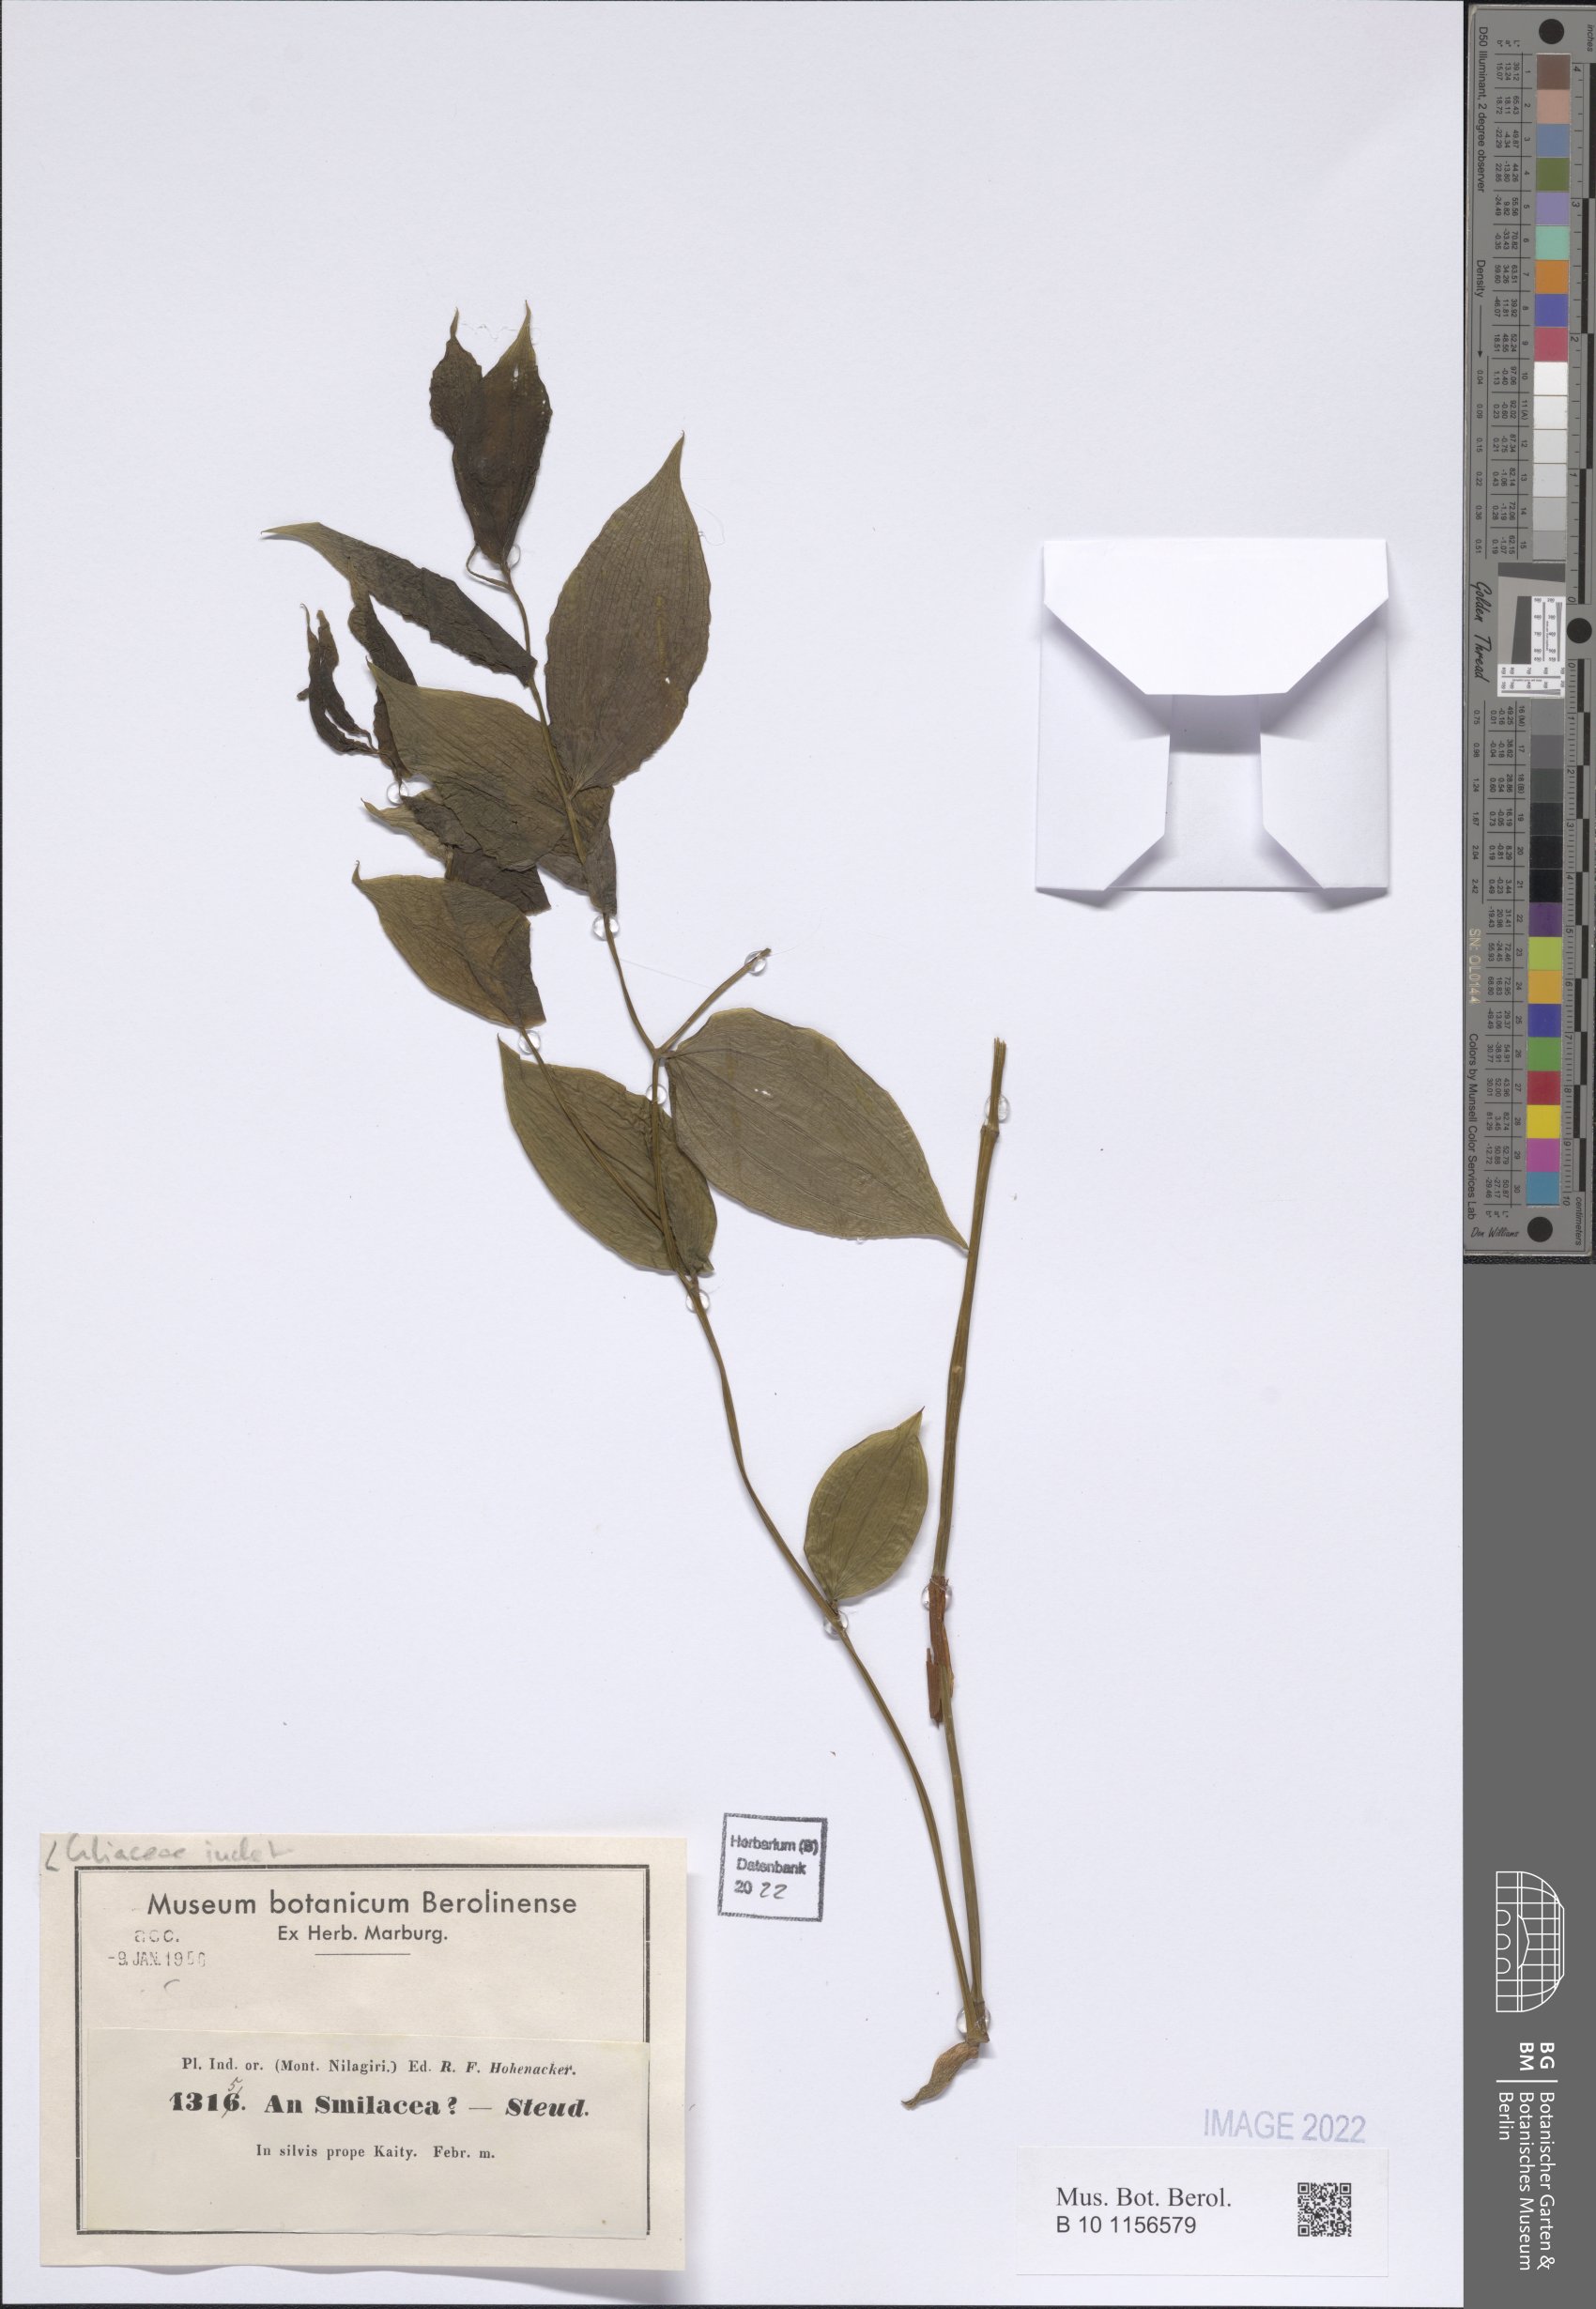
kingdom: Plantae
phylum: Tracheophyta
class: Liliopsida
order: Liliales
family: Liliaceae
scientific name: Liliaceae
